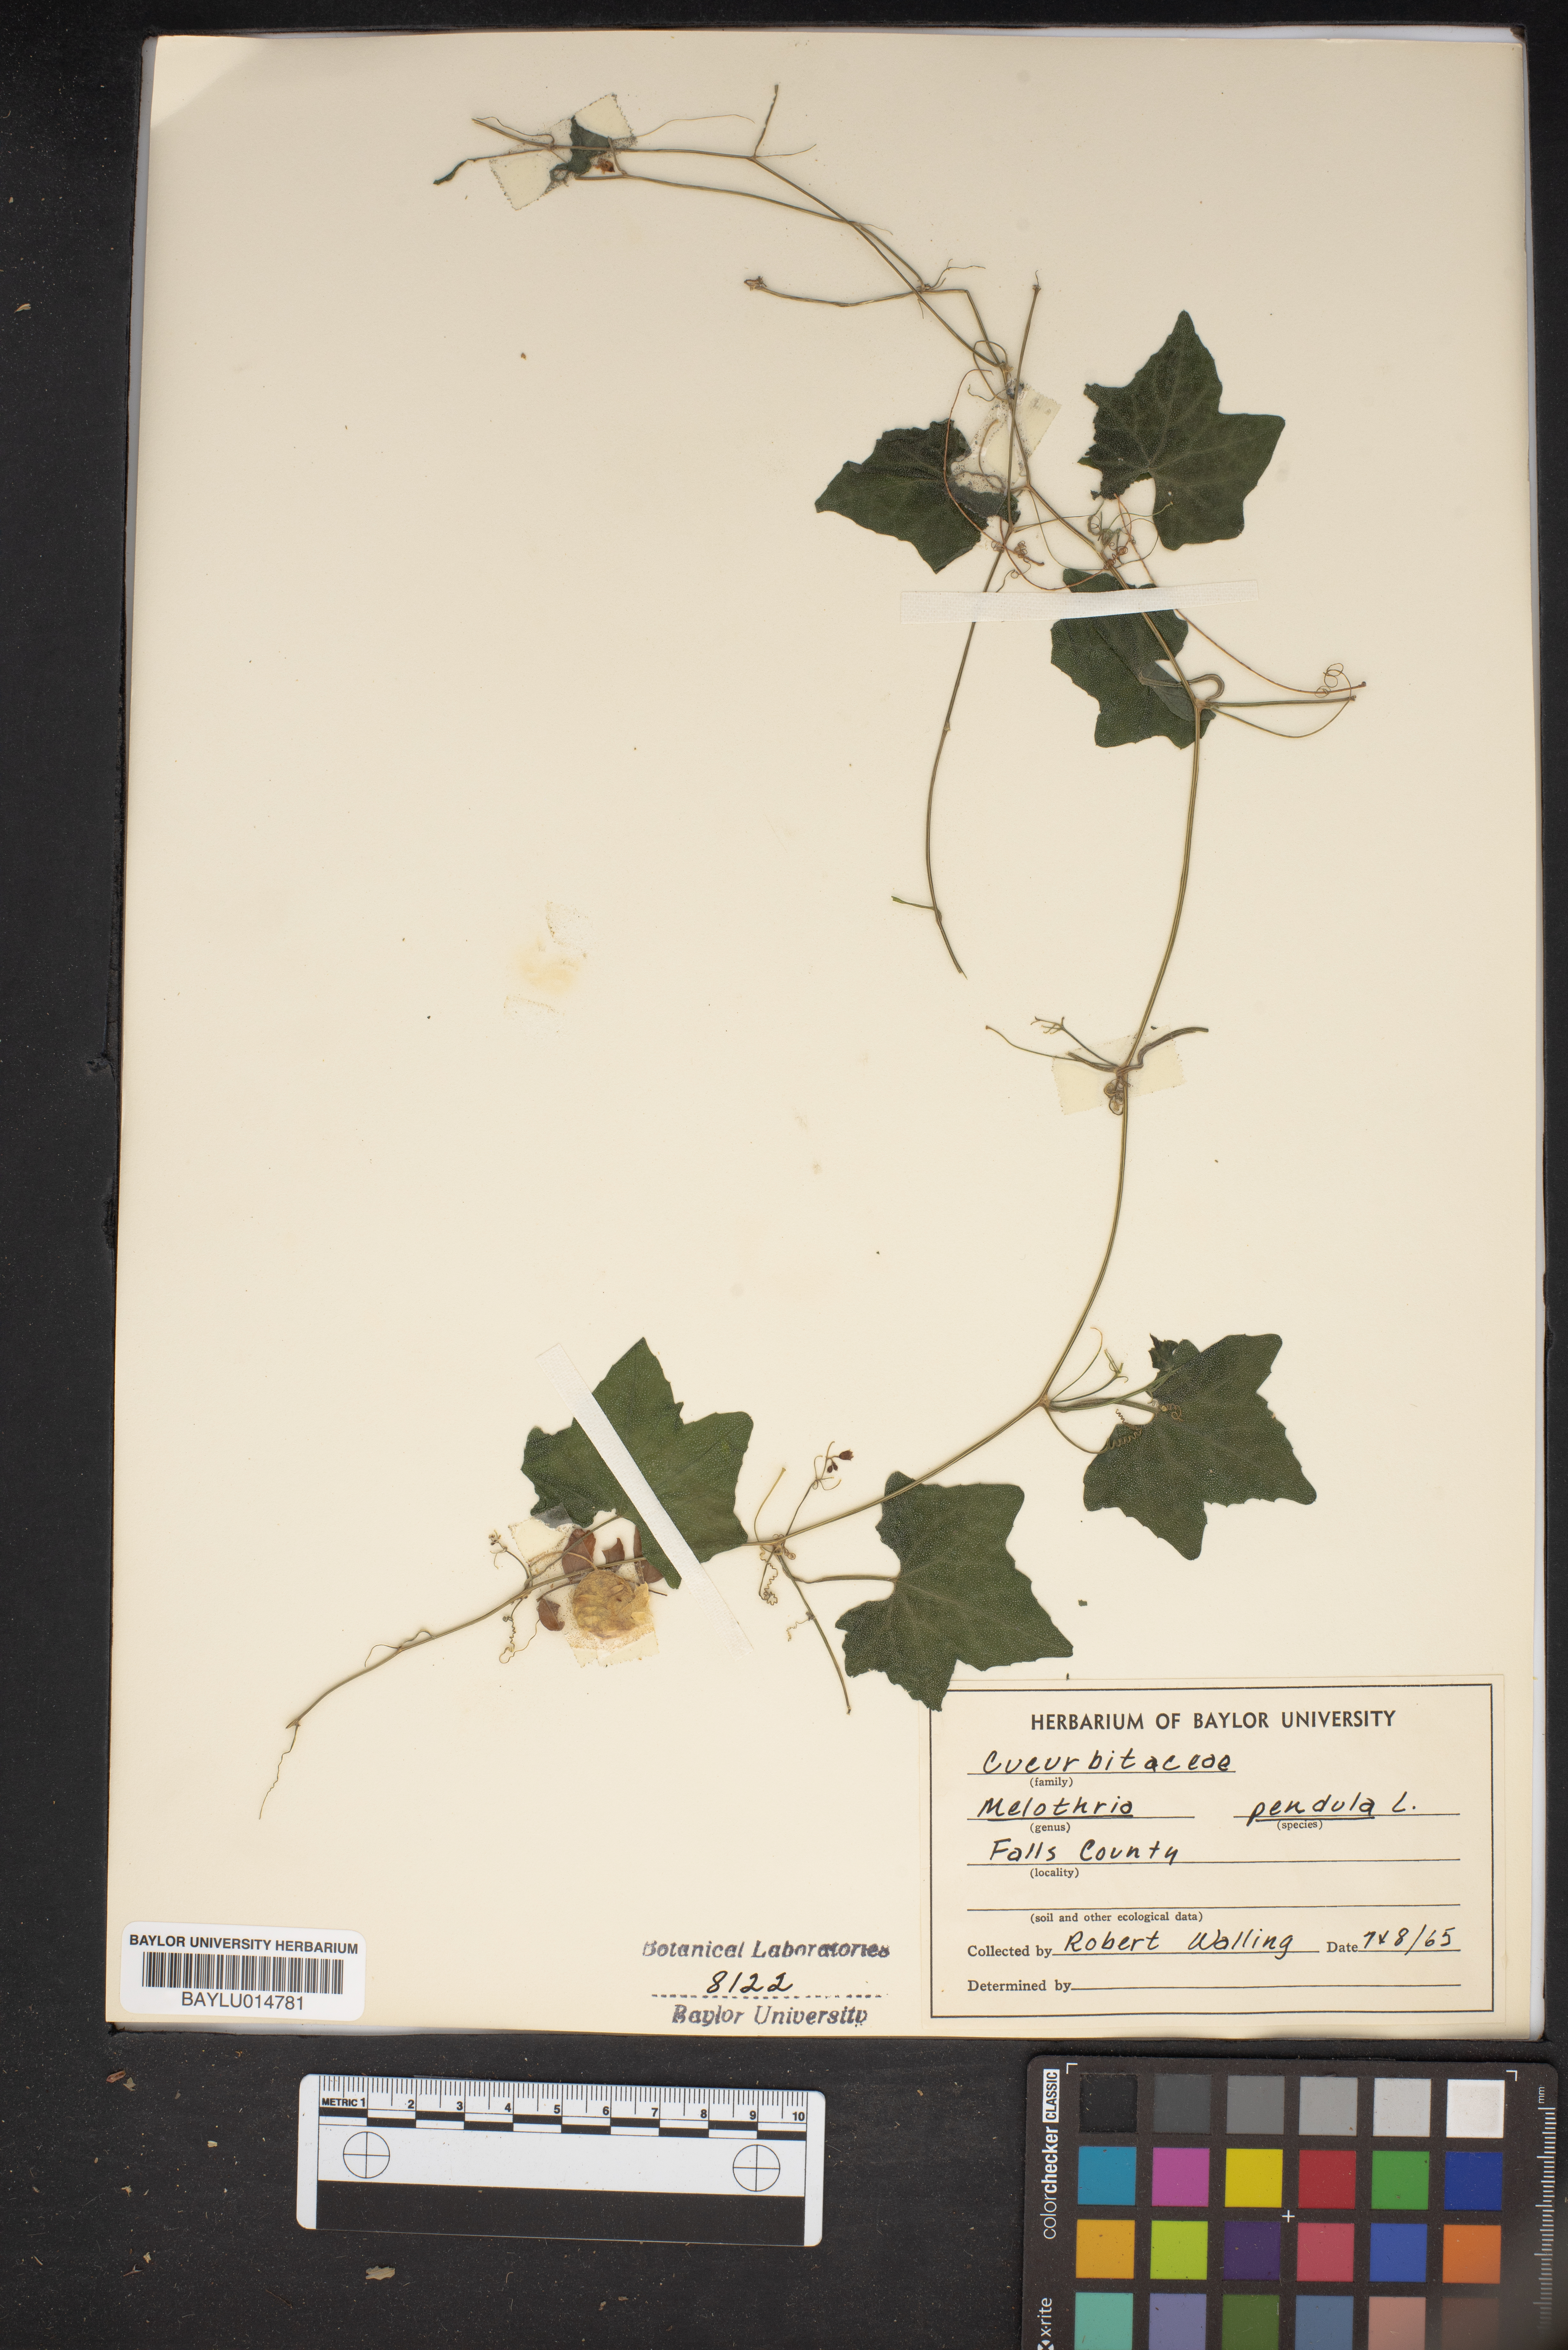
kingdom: Plantae
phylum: Tracheophyta
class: Magnoliopsida
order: Cucurbitales
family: Cucurbitaceae
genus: Melothria
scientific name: Melothria pendula
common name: Creeping-cucumber
